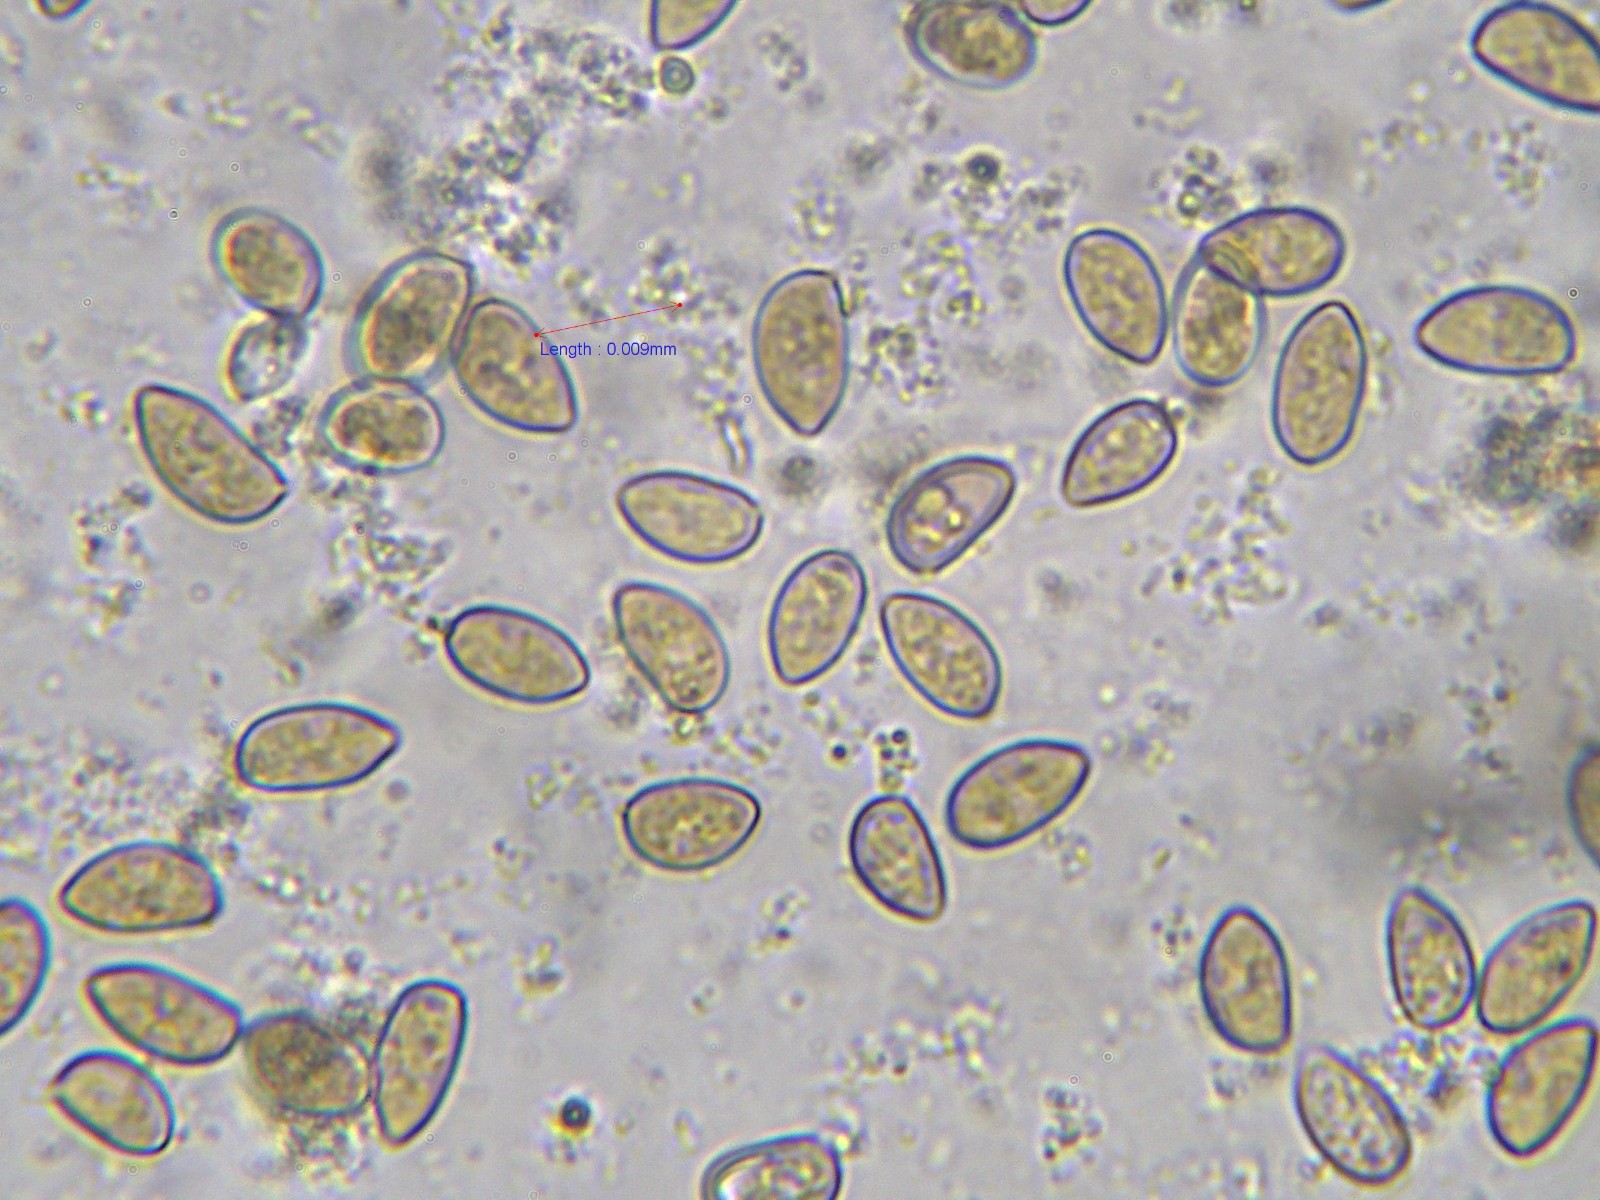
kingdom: Fungi
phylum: Basidiomycota
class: Agaricomycetes
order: Agaricales
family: Inocybaceae
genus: Inocybe
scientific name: Inocybe fuscidula
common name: brunfibret trævlhat
